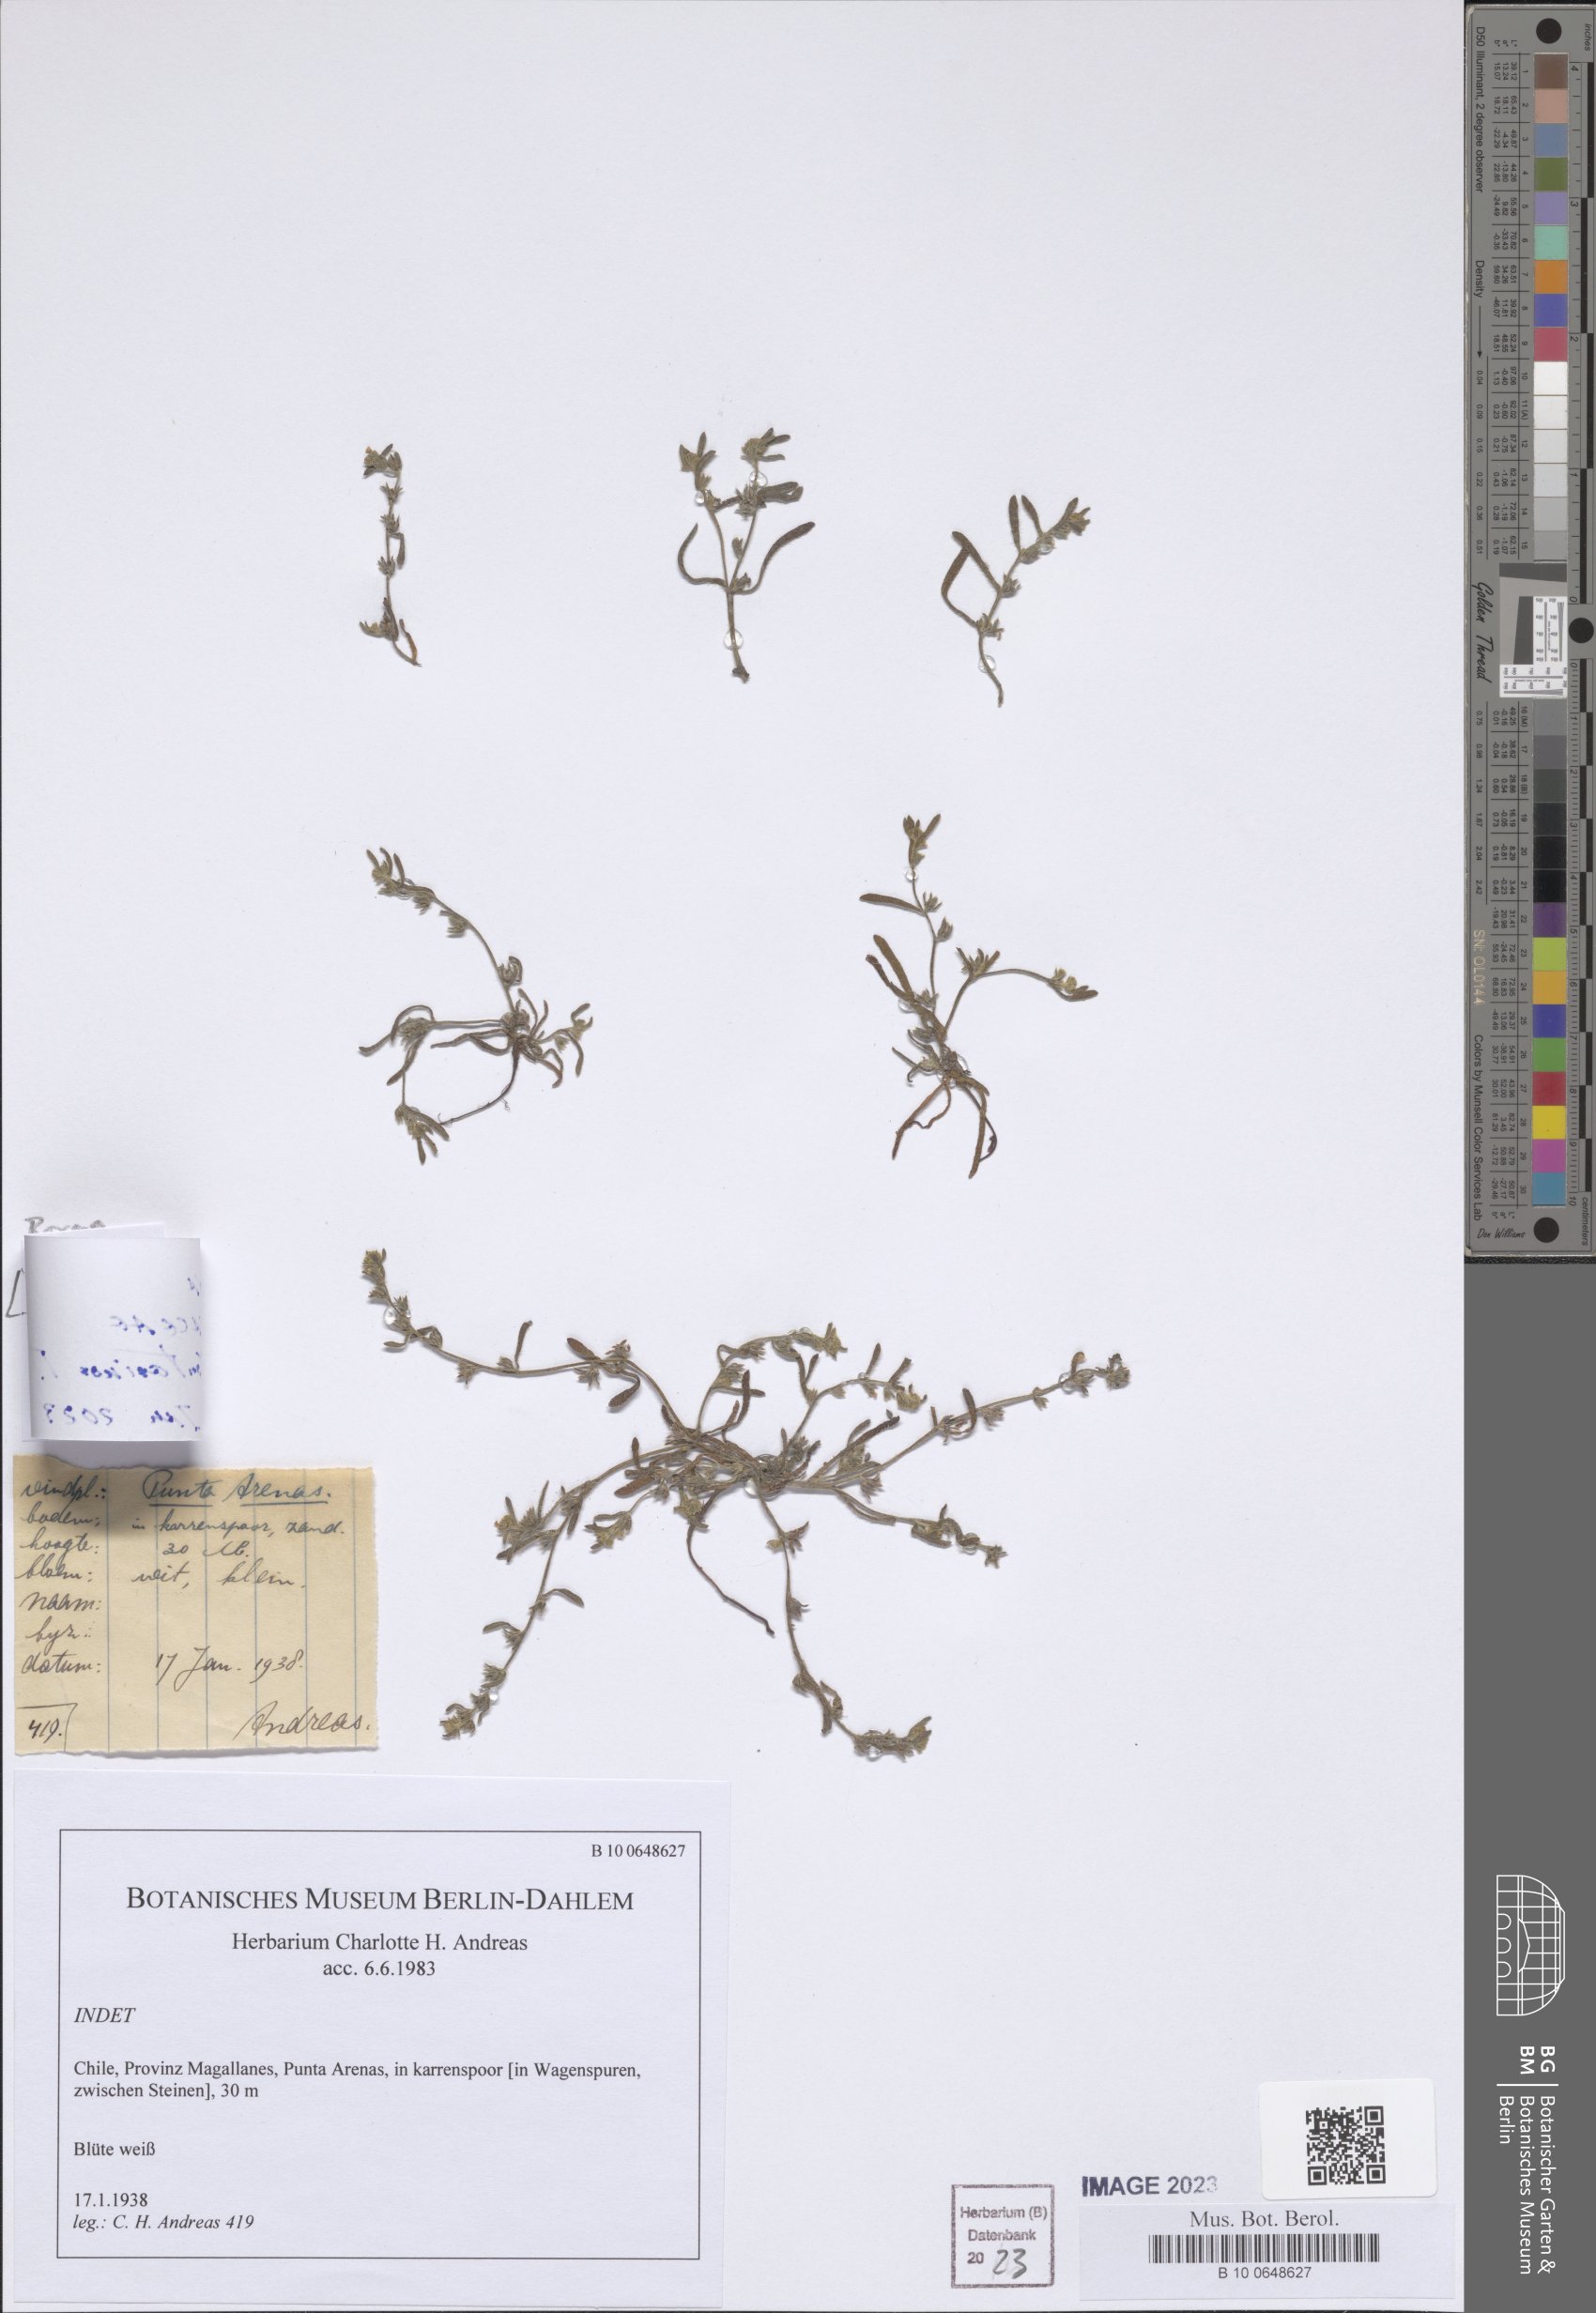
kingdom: Plantae
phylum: Tracheophyta
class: Magnoliopsida
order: Boraginales
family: Boraginaceae
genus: Pectocarya
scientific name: Pectocarya
